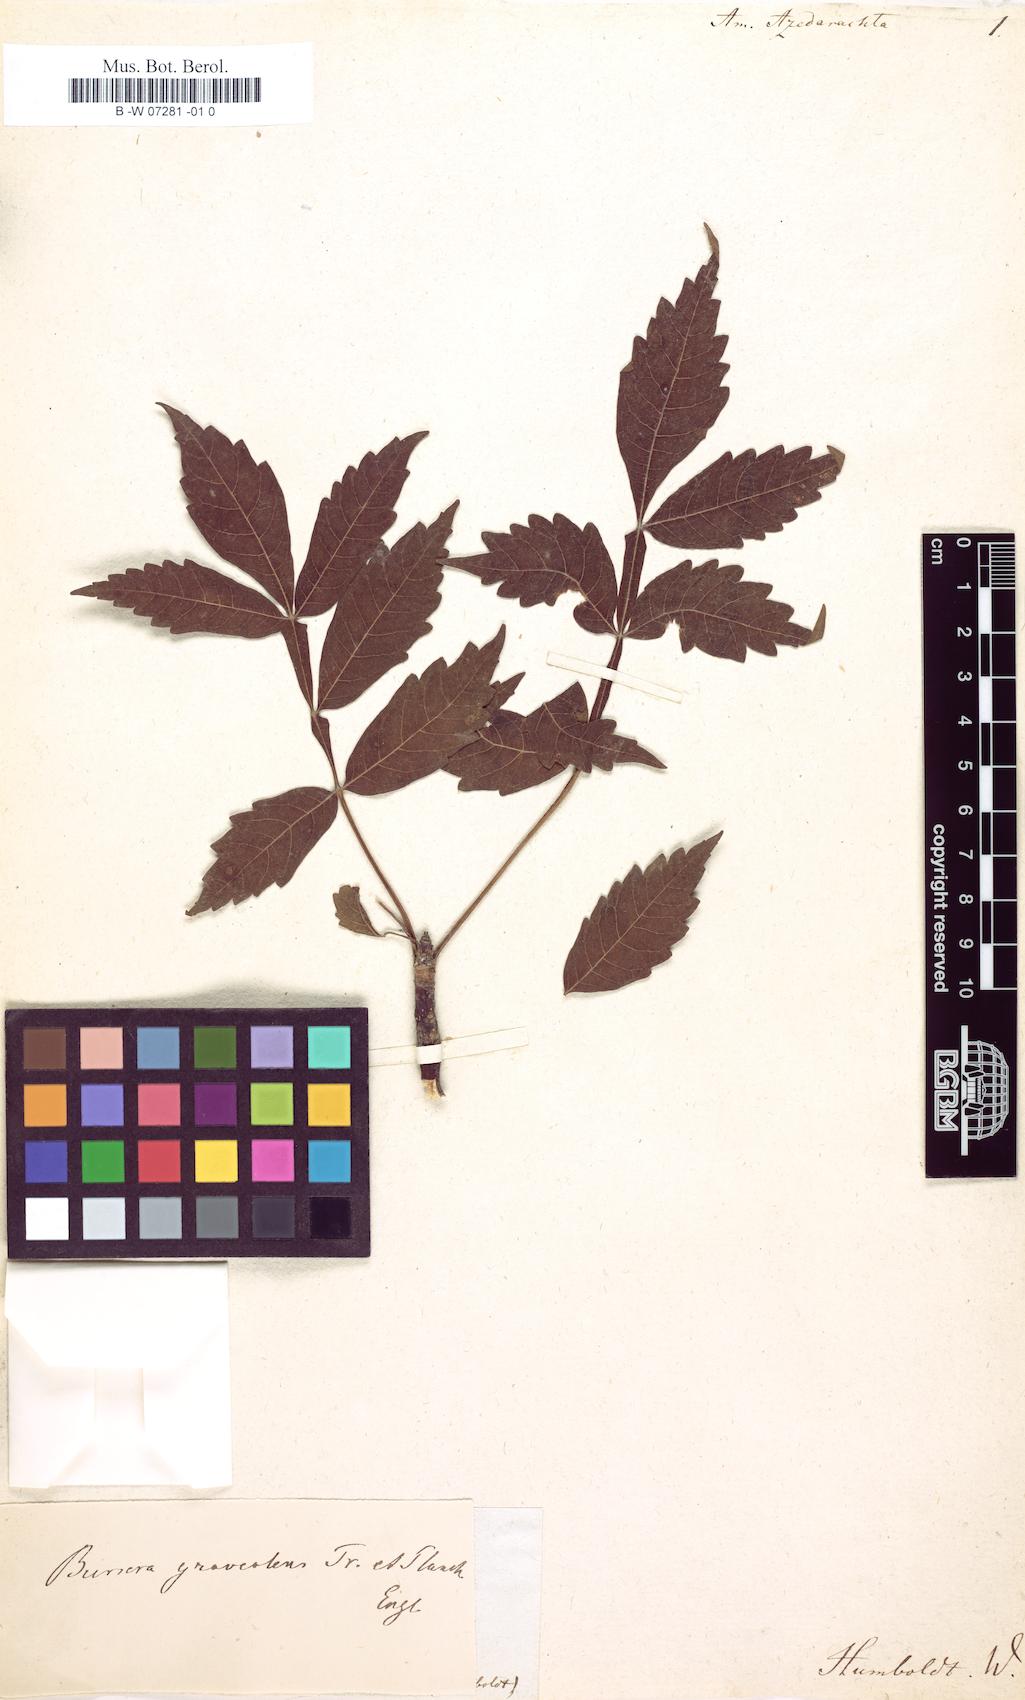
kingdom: Plantae
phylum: Tracheophyta
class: Magnoliopsida
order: Sapindales
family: Rutaceae
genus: Amyris
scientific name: Amyris
